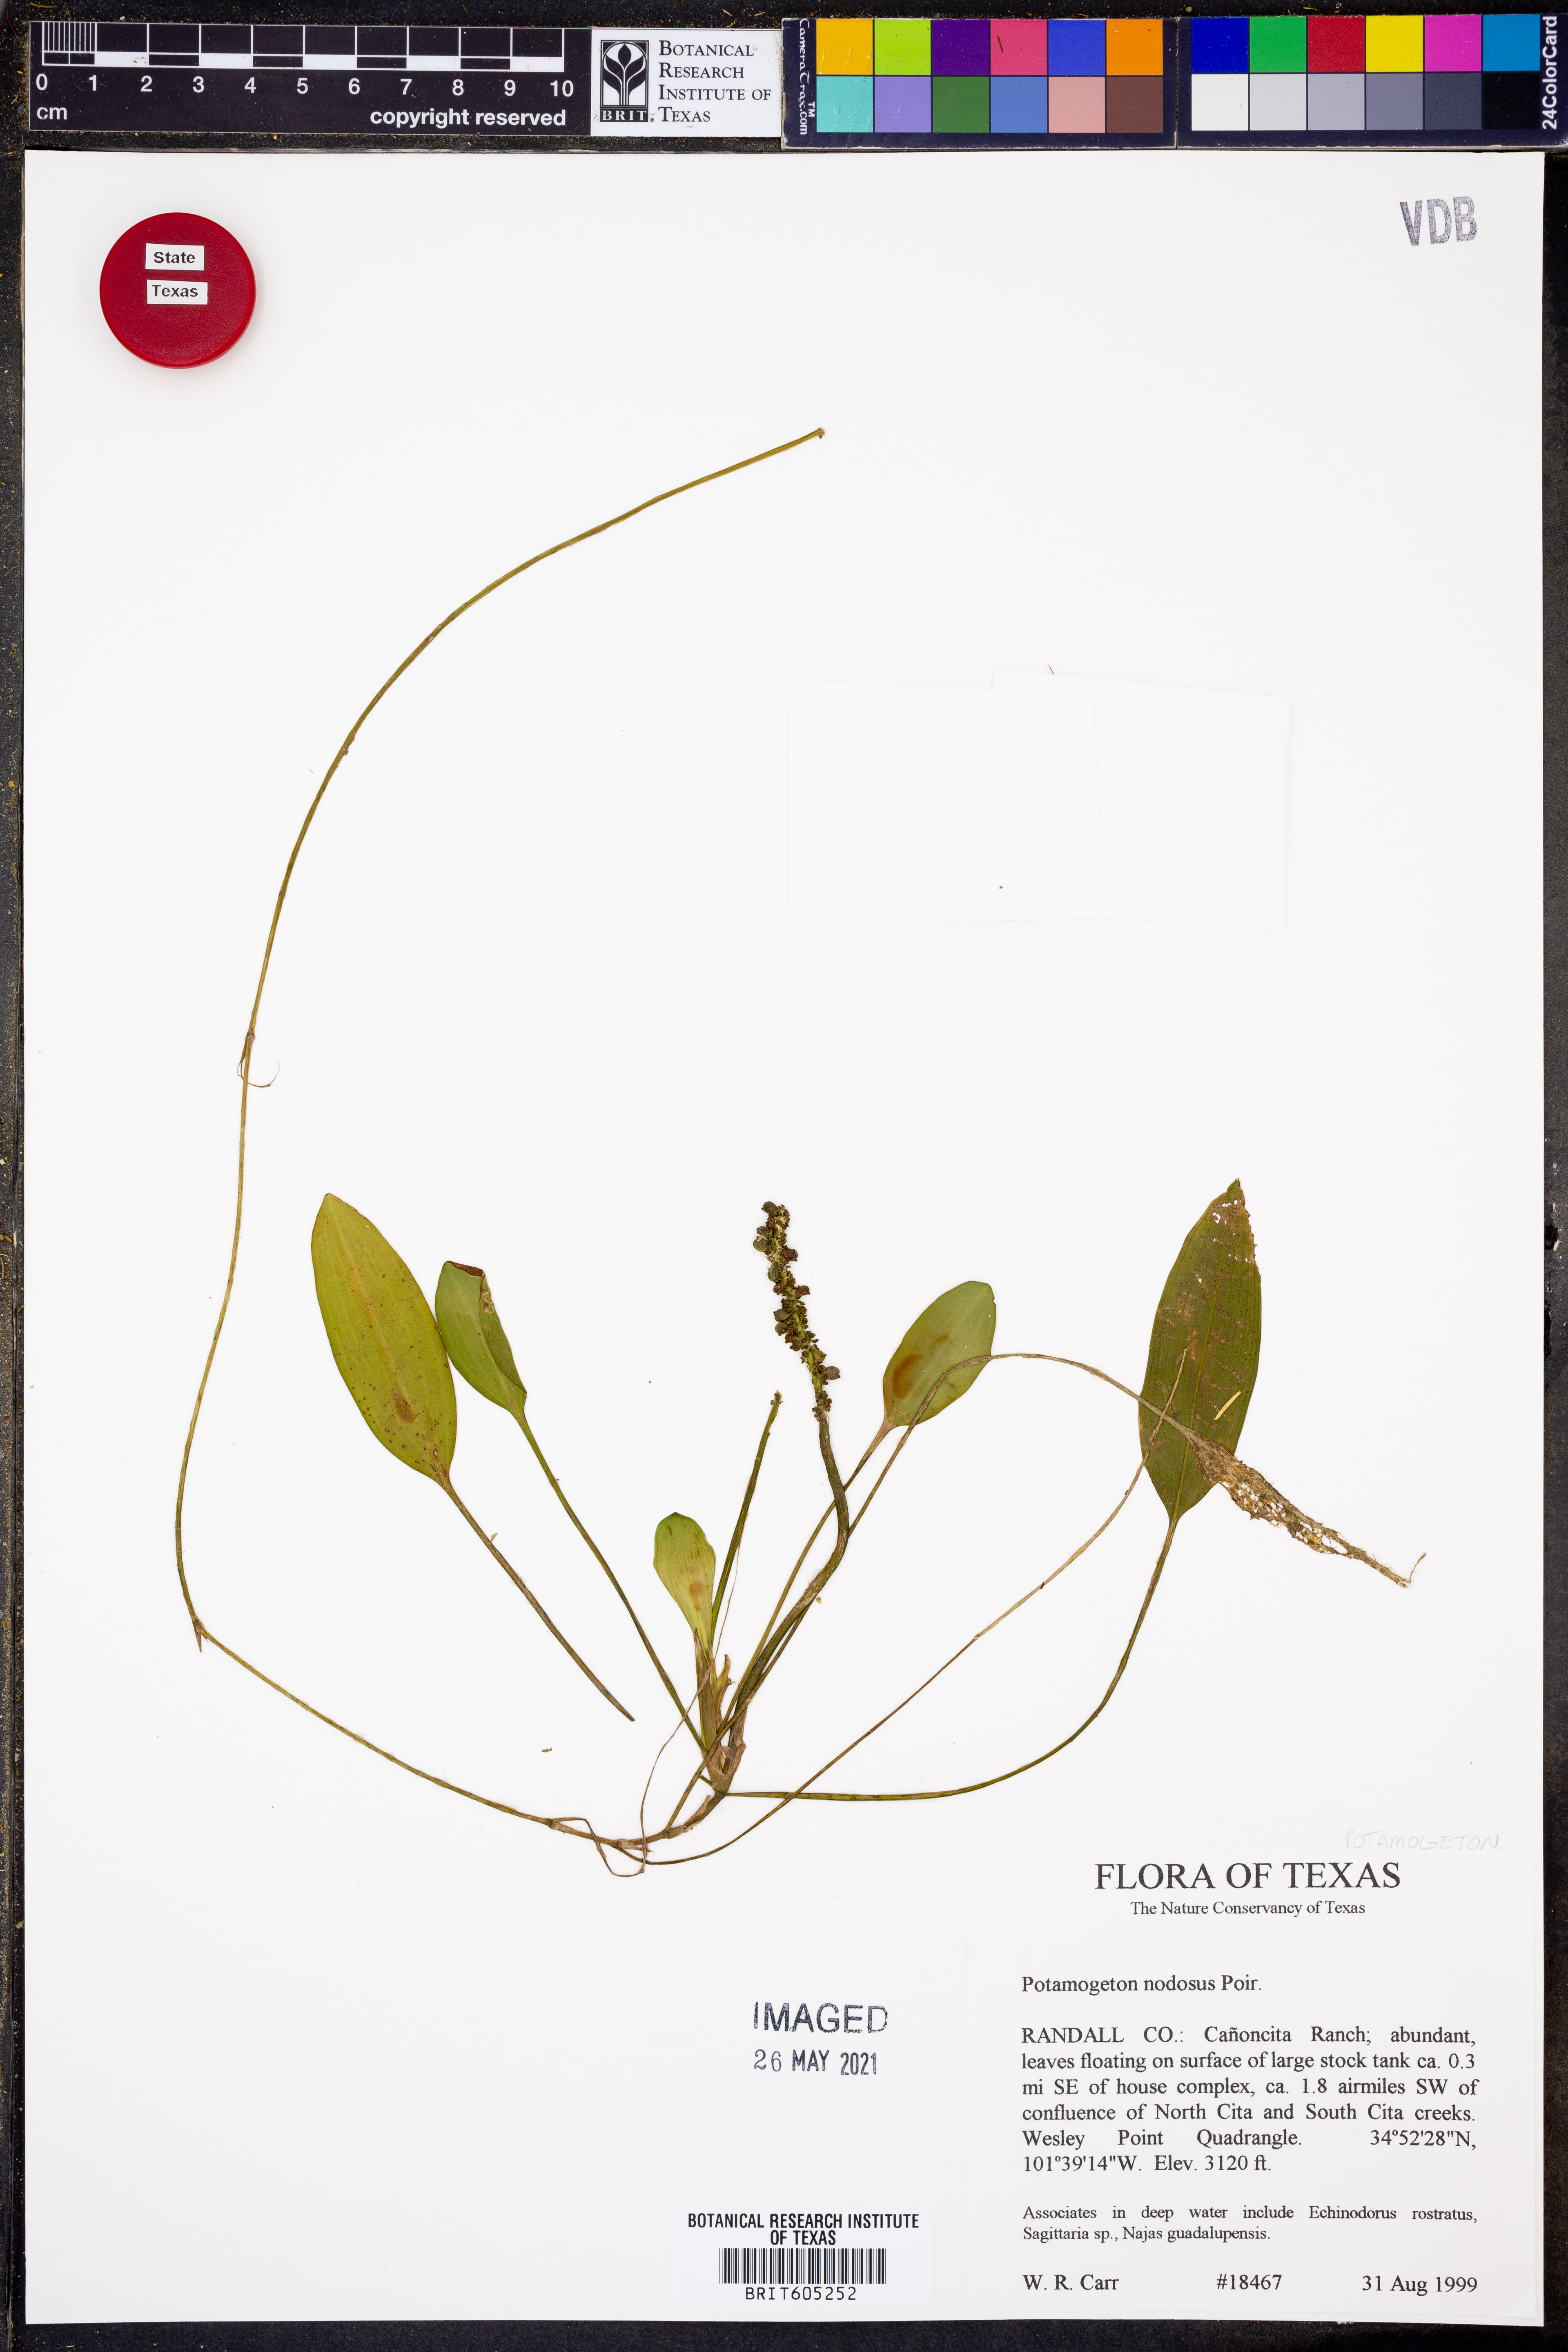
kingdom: Plantae
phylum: Tracheophyta
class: Liliopsida
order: Alismatales
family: Potamogetonaceae
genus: Potamogeton
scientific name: Potamogeton nodosus
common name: Loddon pondweed
